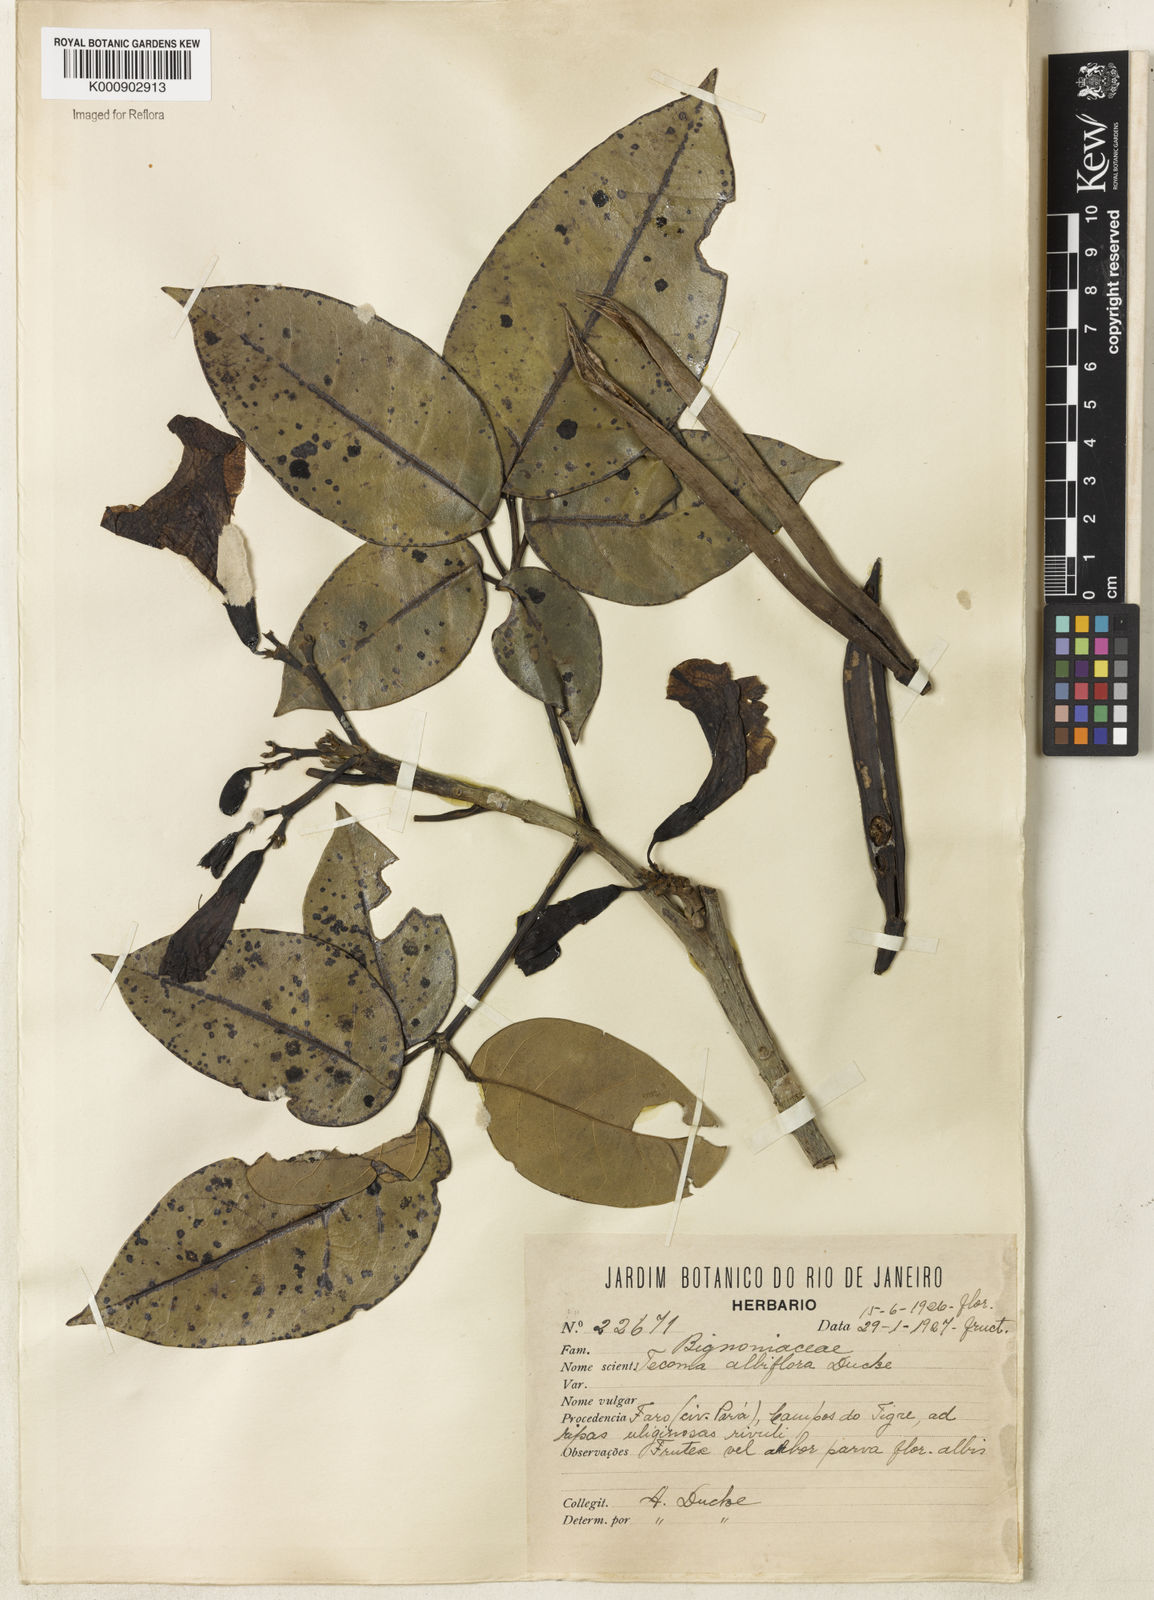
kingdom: Plantae
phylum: Tracheophyta
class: Magnoliopsida
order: Lamiales
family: Bignoniaceae
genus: Tabebuia
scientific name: Tabebuia insignis
